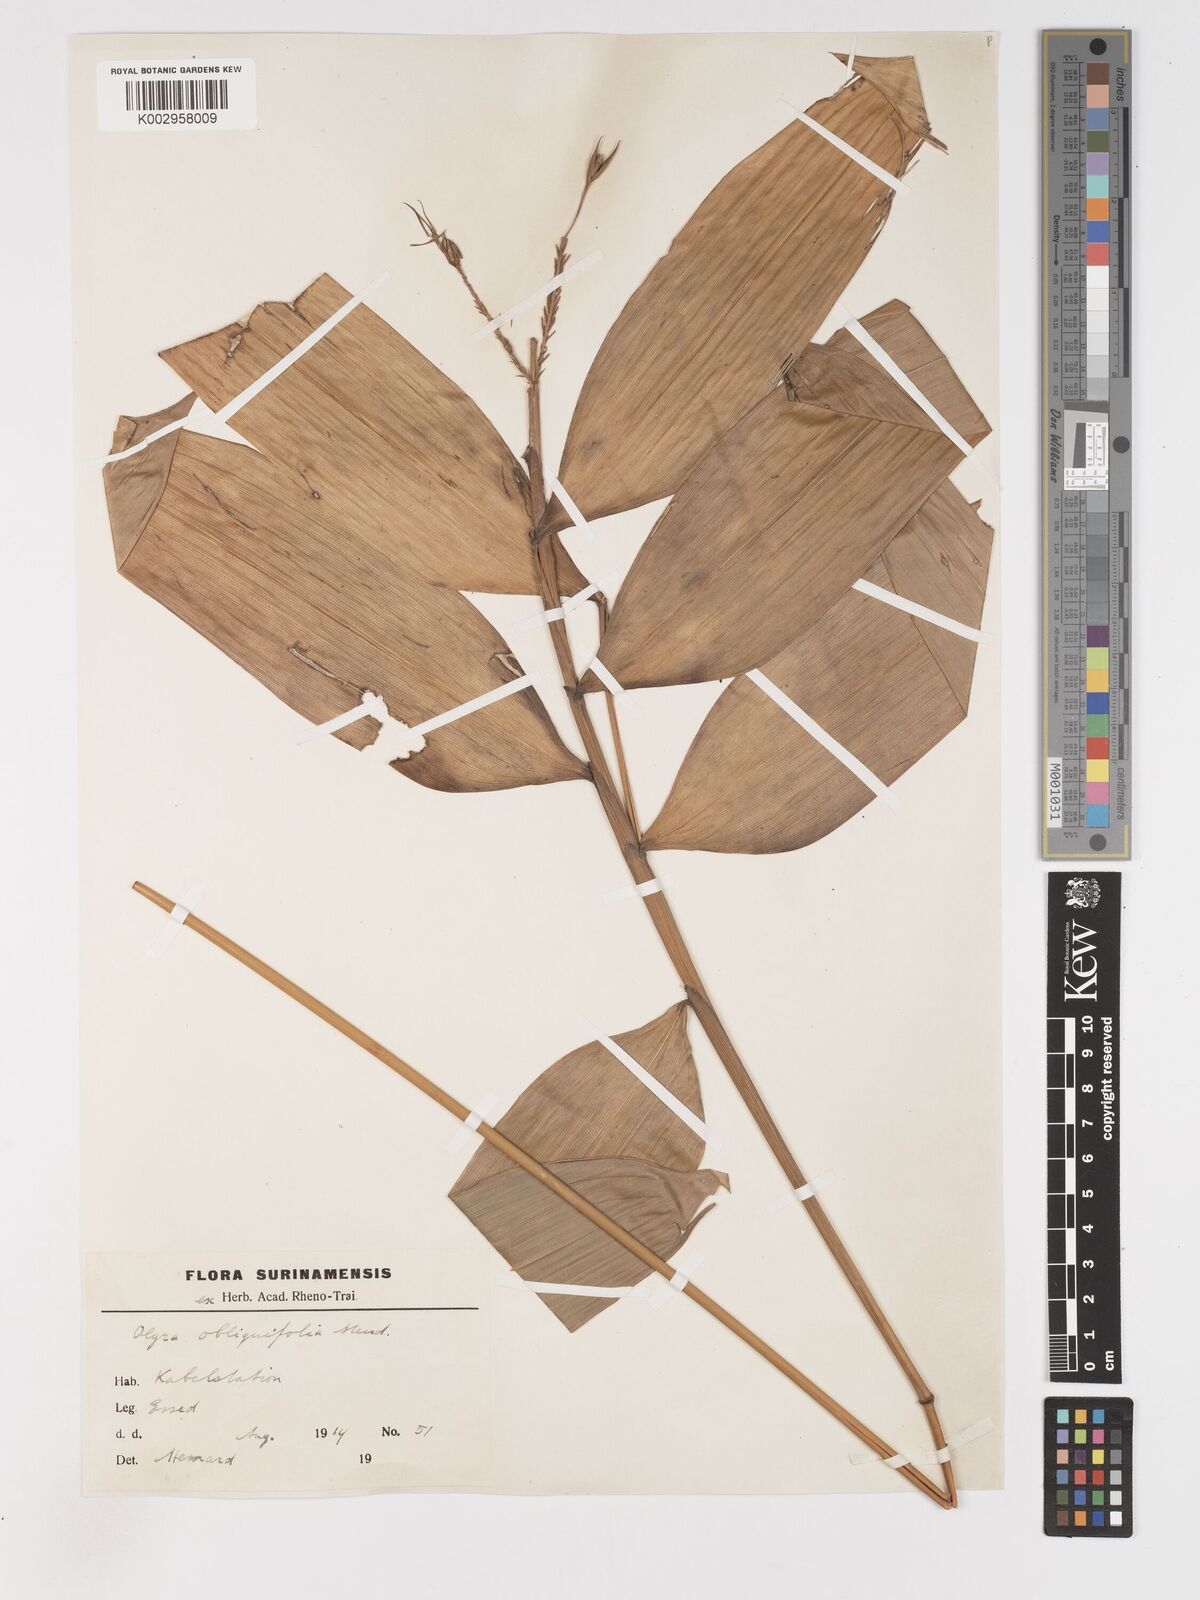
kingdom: Plantae
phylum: Tracheophyta
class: Liliopsida
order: Poales
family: Poaceae
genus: Olyra
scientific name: Olyra obliquifolia
